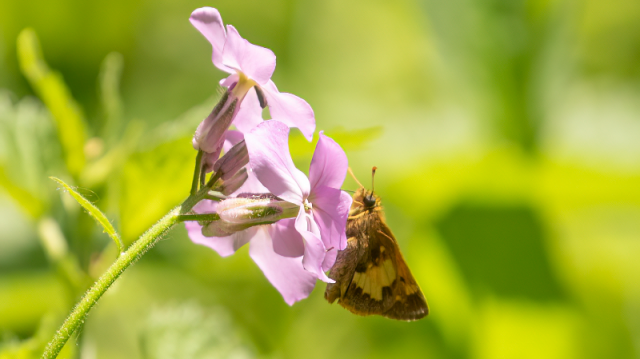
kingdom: Animalia
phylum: Arthropoda
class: Insecta
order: Lepidoptera
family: Hesperiidae
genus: Lon
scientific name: Lon hobomok
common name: Hobomok Skipper
